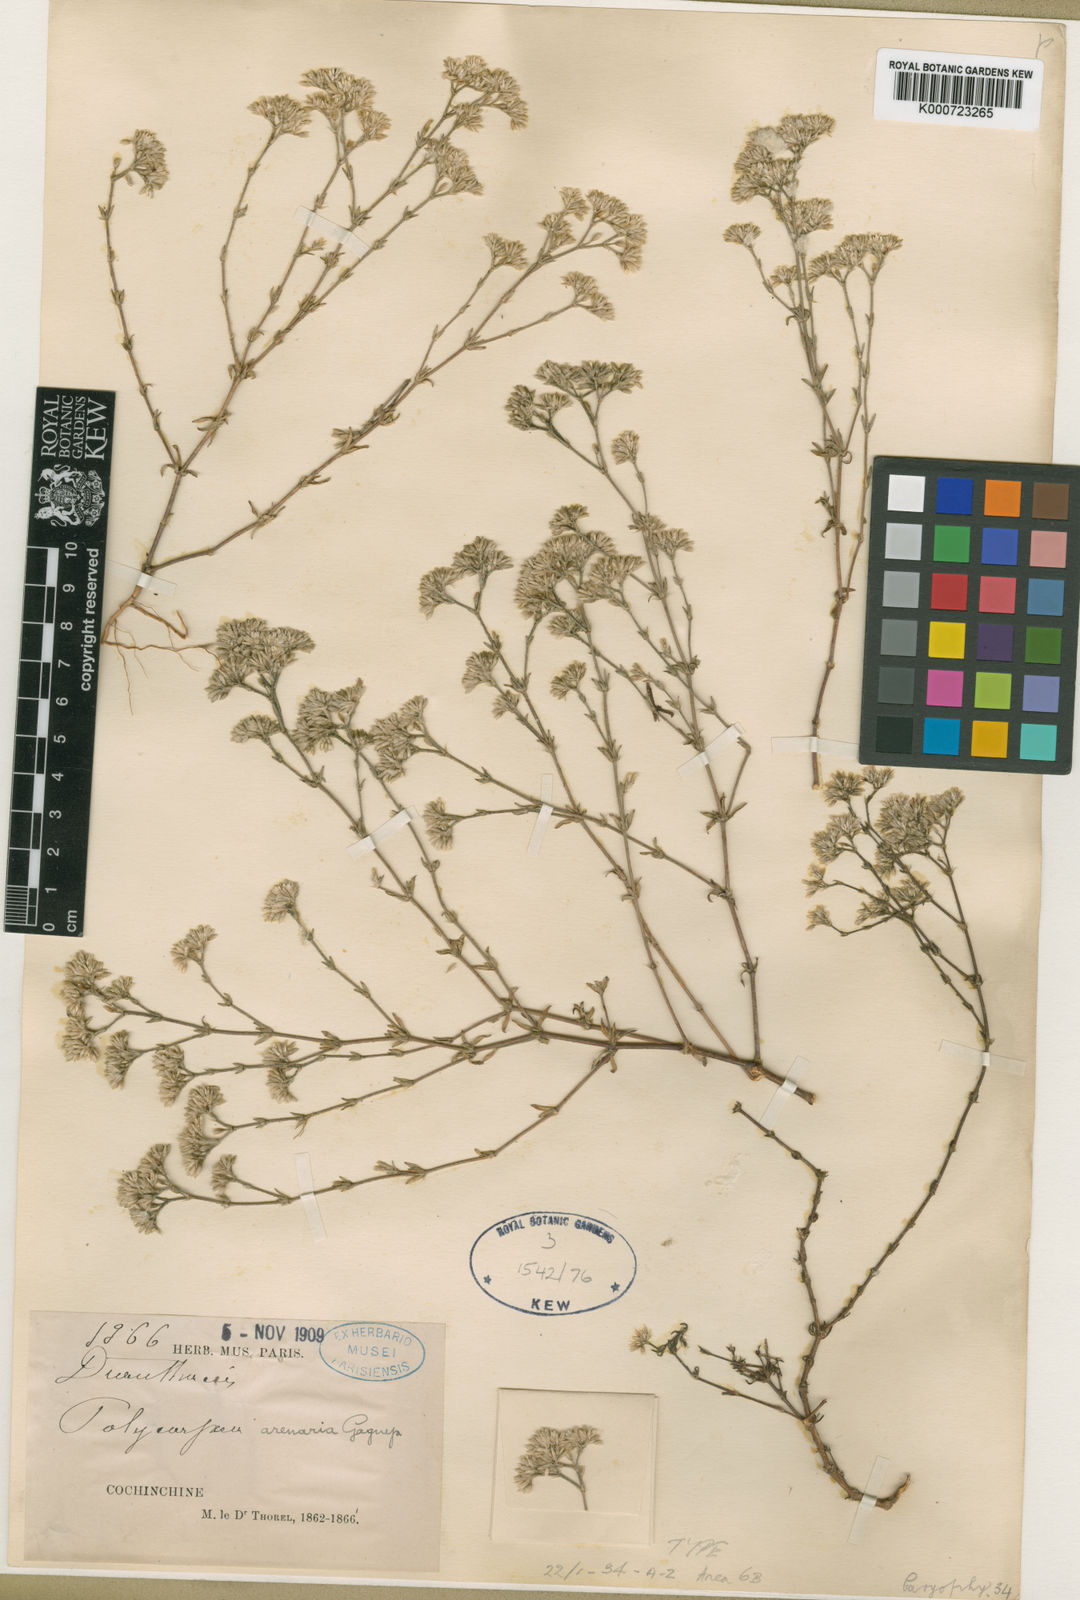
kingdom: Plantae
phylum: Tracheophyta
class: Magnoliopsida
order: Caryophyllales
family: Caryophyllaceae
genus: Polycarpaea
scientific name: Polycarpaea arenaria
